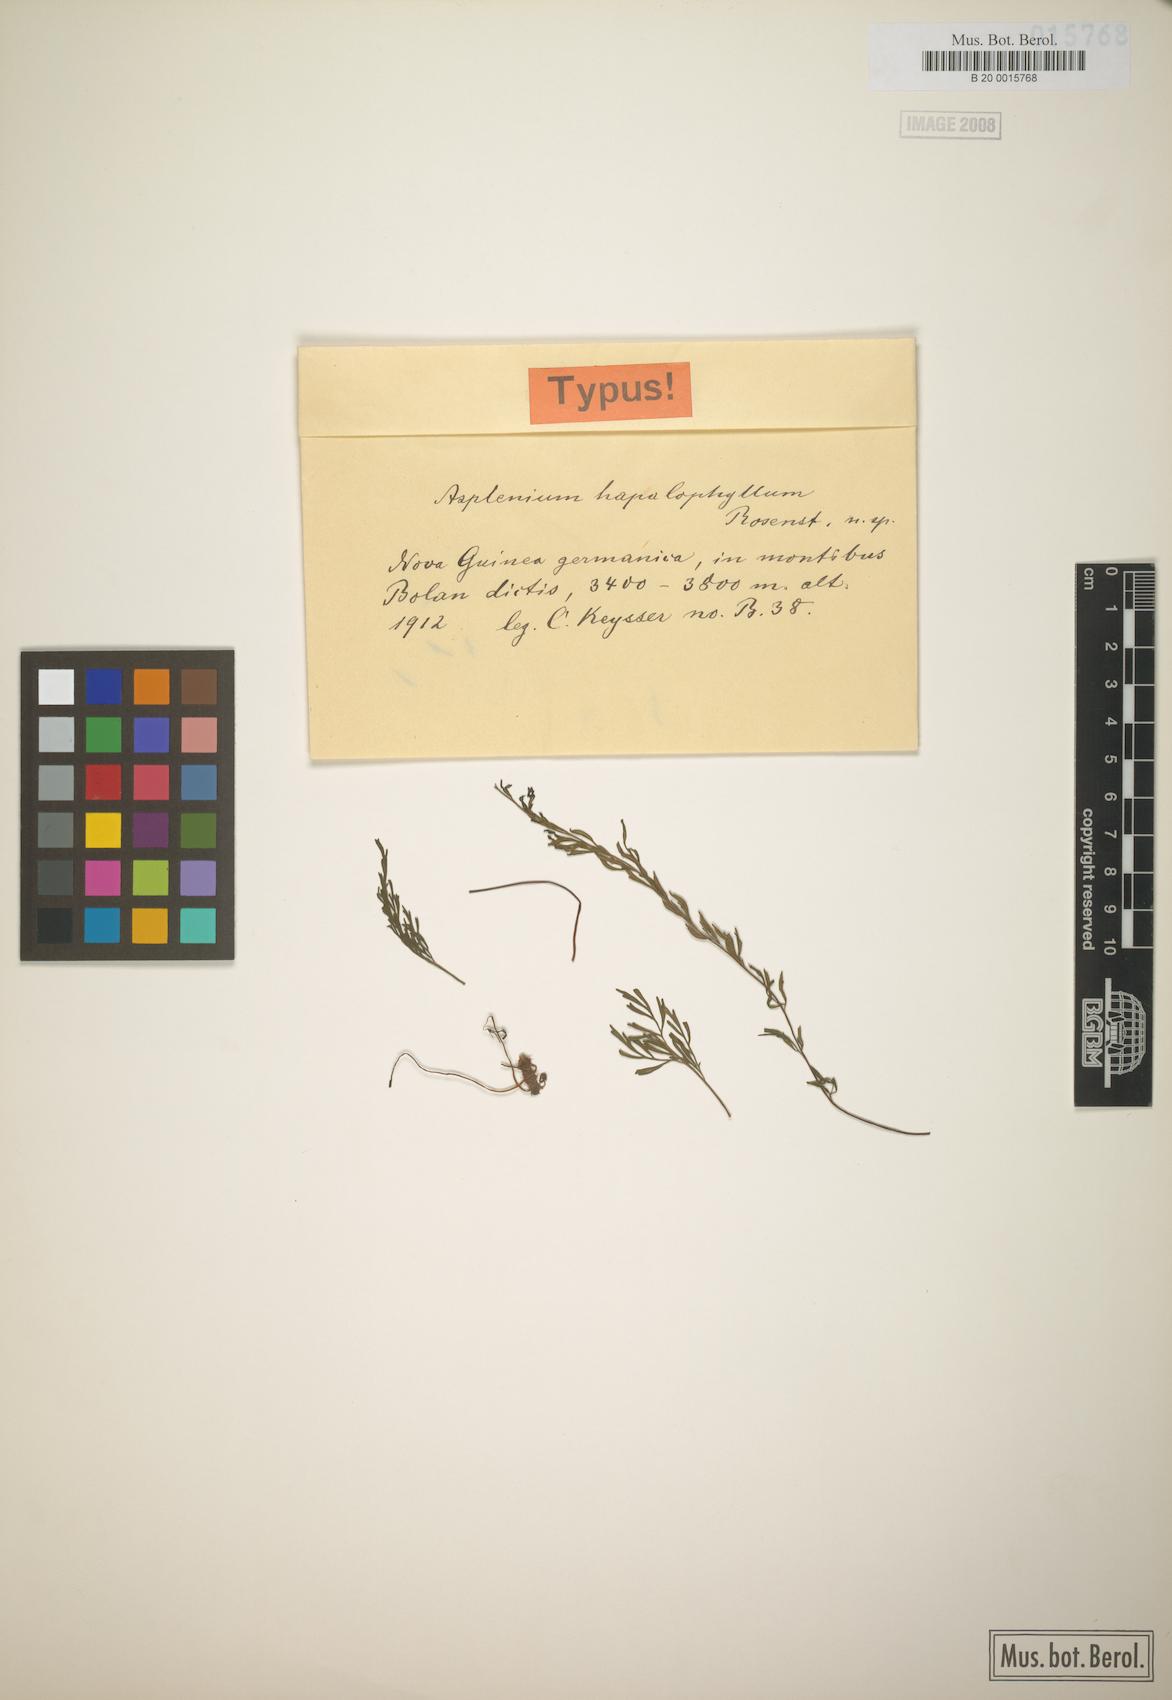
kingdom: Plantae
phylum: Tracheophyta
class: Polypodiopsida
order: Polypodiales
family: Aspleniaceae
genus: Asplenium
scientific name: Asplenium hapalophyllum
